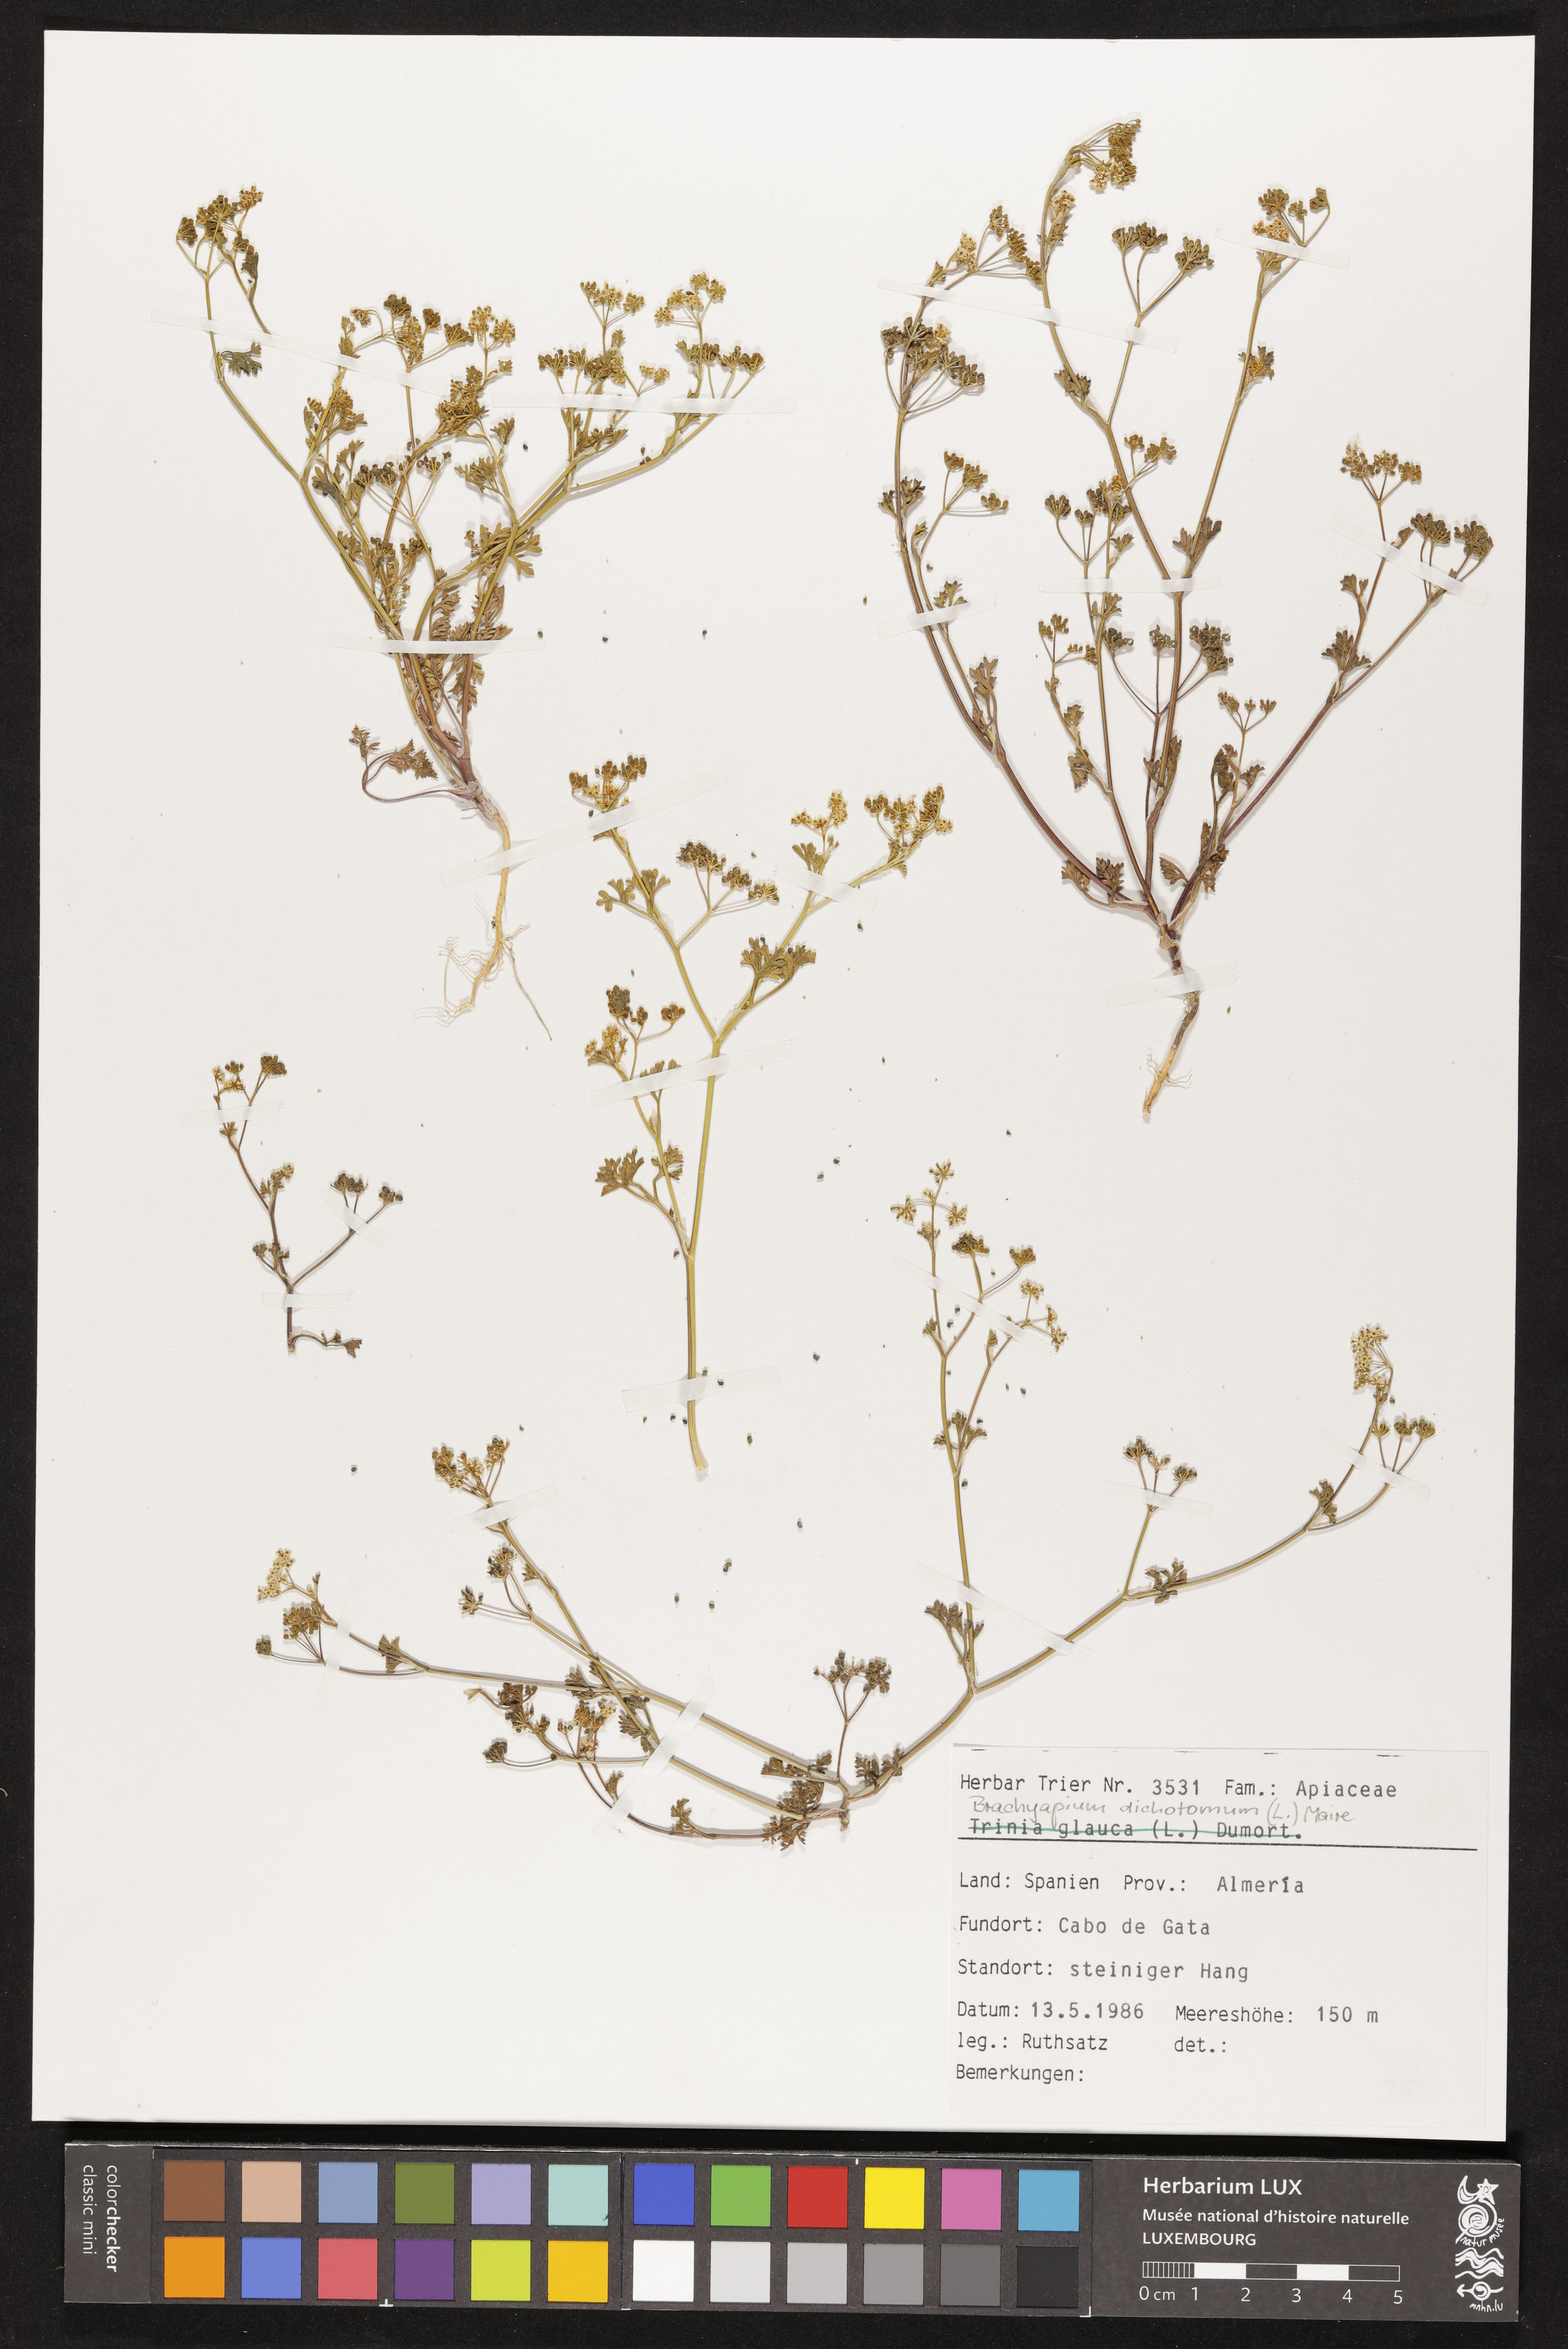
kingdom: Plantae
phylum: Tracheophyta
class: Magnoliopsida
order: Apiales
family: Apiaceae
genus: Stoibrax
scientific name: Stoibrax dichotomum
